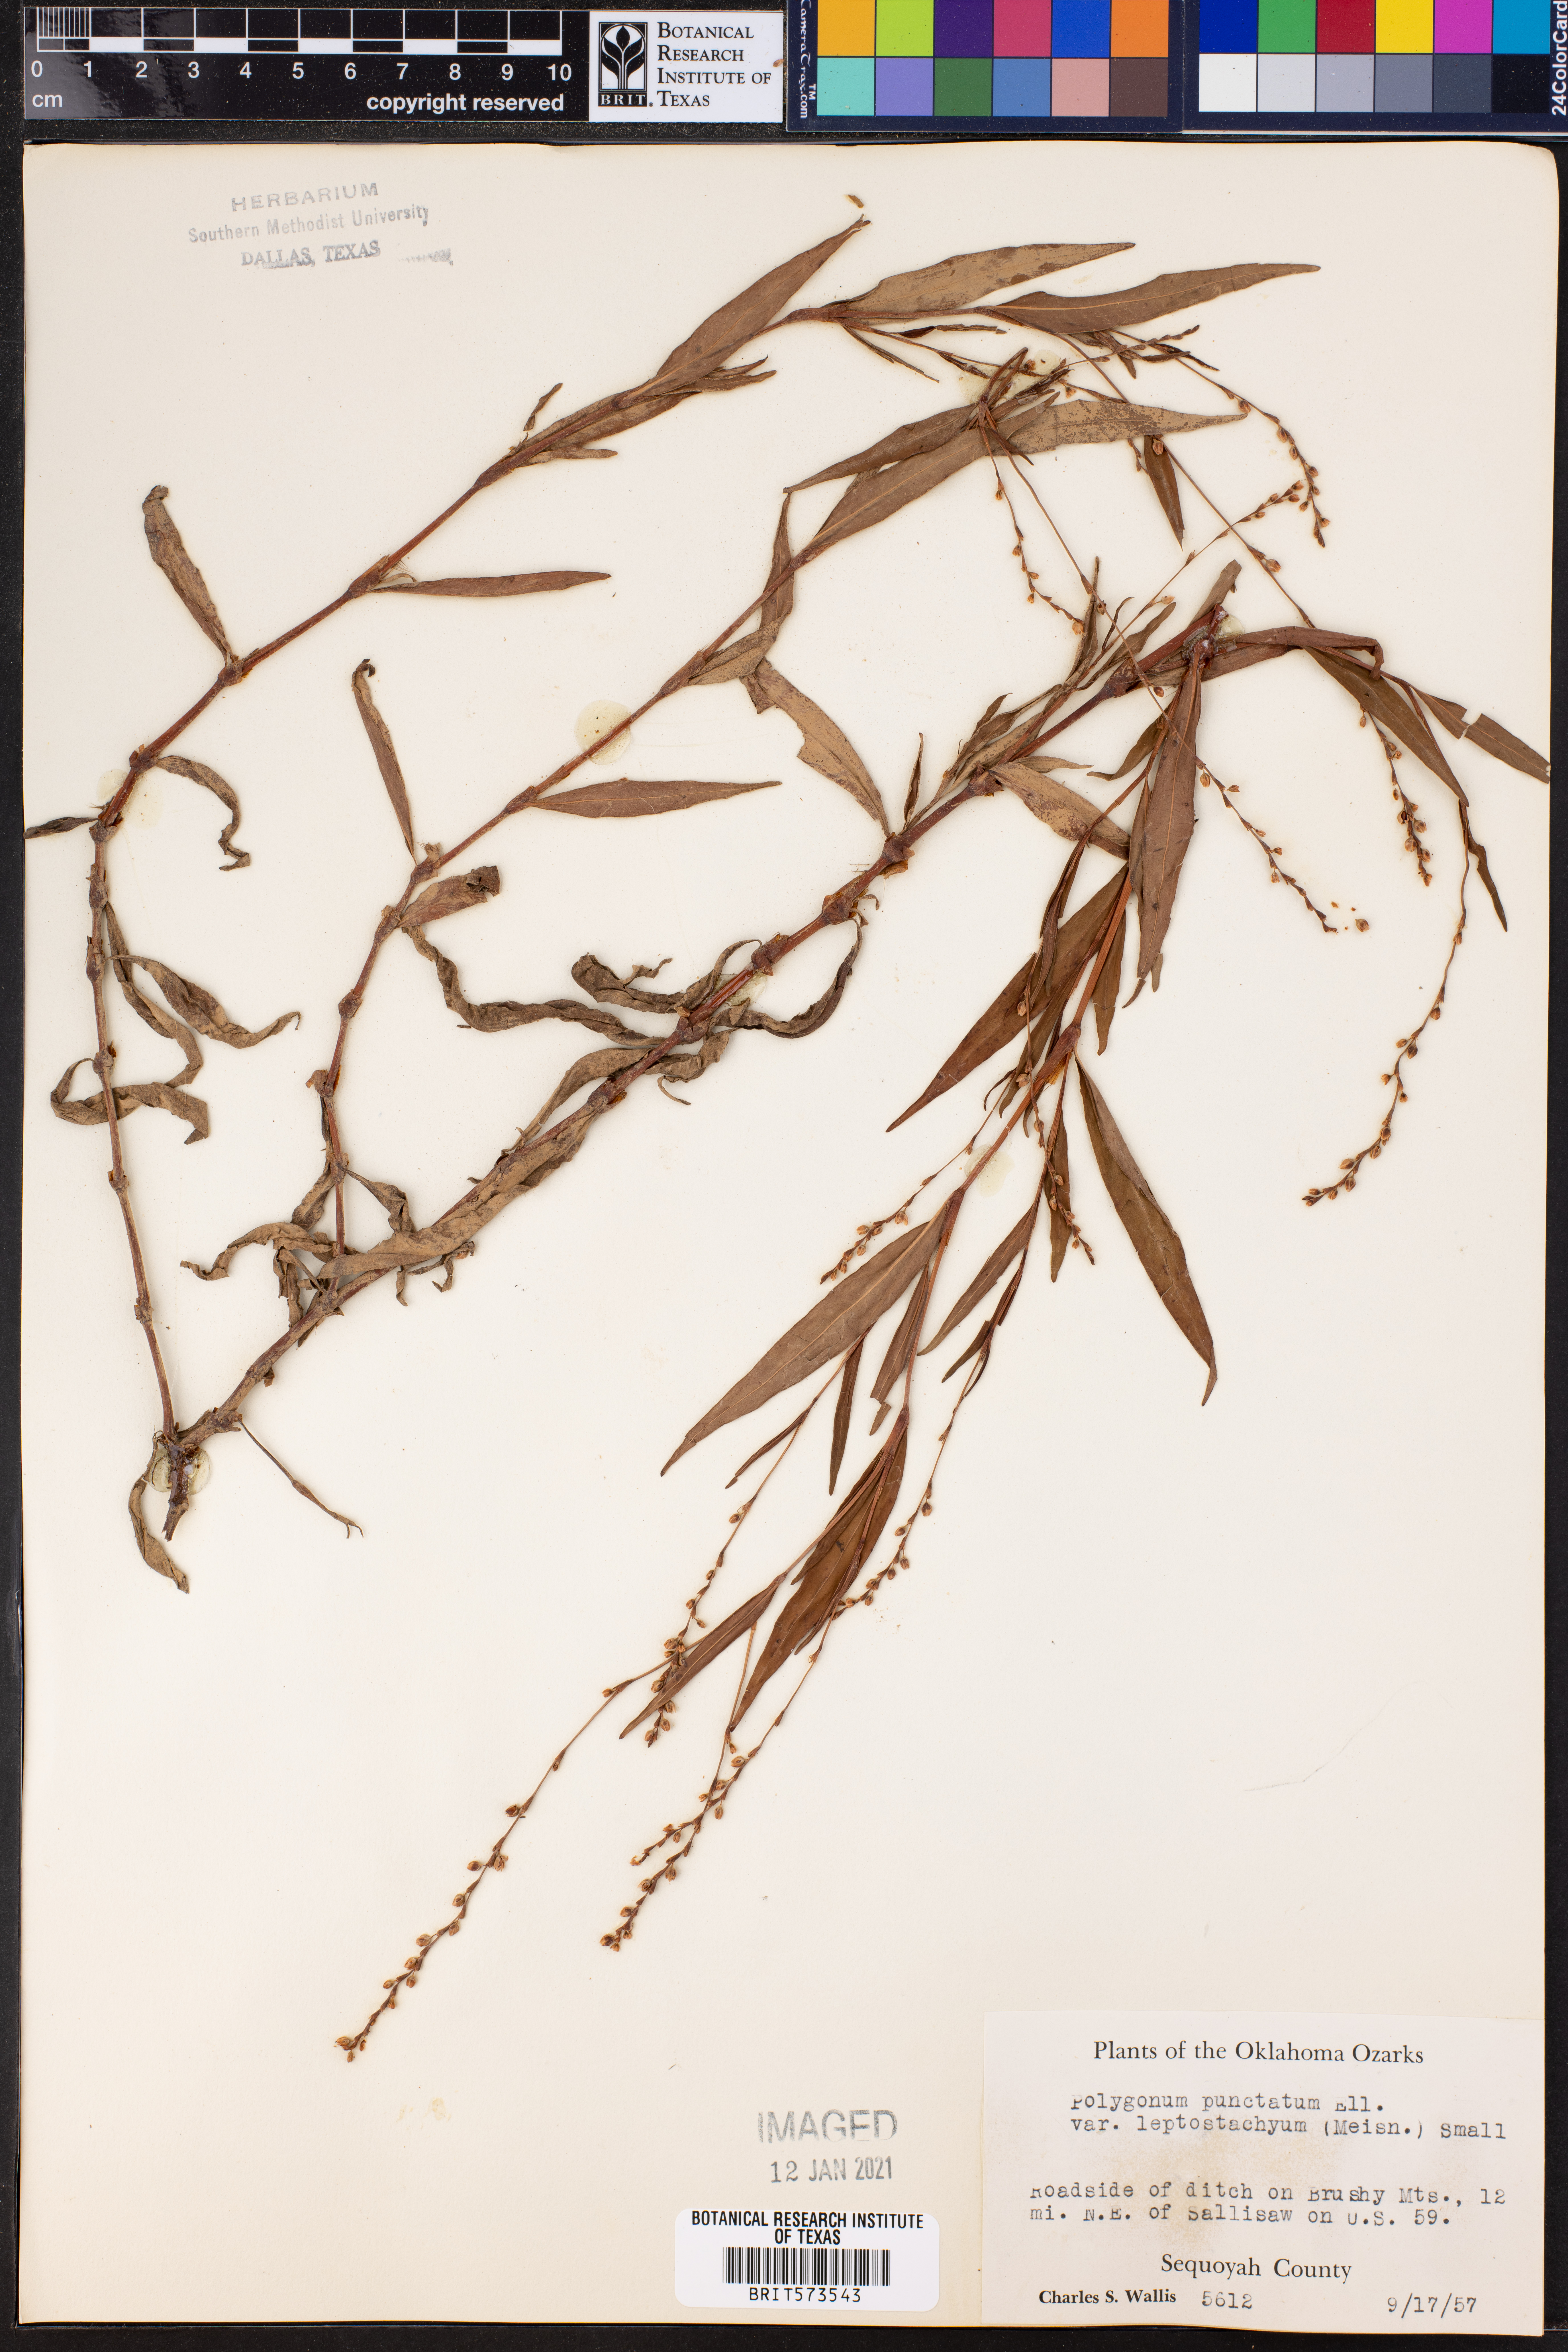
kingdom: Plantae
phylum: Tracheophyta
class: Magnoliopsida
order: Caryophyllales
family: Polygonaceae
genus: Persicaria
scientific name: Persicaria punctata
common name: Dotted smartweed
